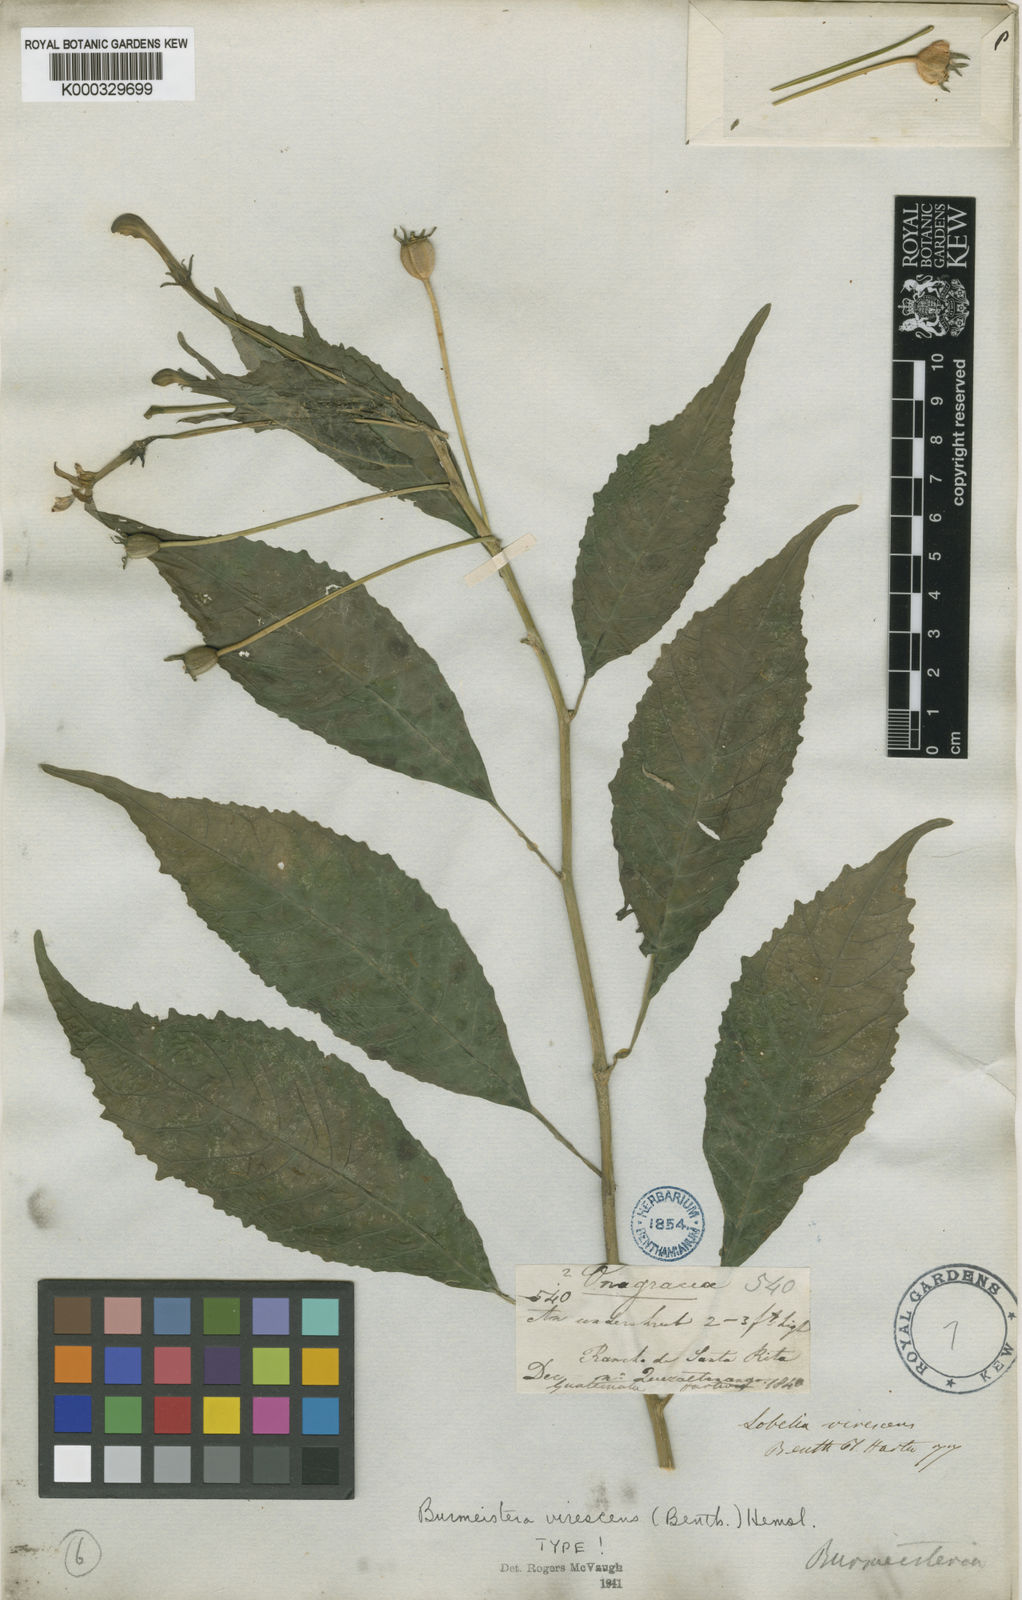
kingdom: Plantae
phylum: Tracheophyta
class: Magnoliopsida
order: Asterales
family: Campanulaceae
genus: Burmeistera
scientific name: Burmeistera
